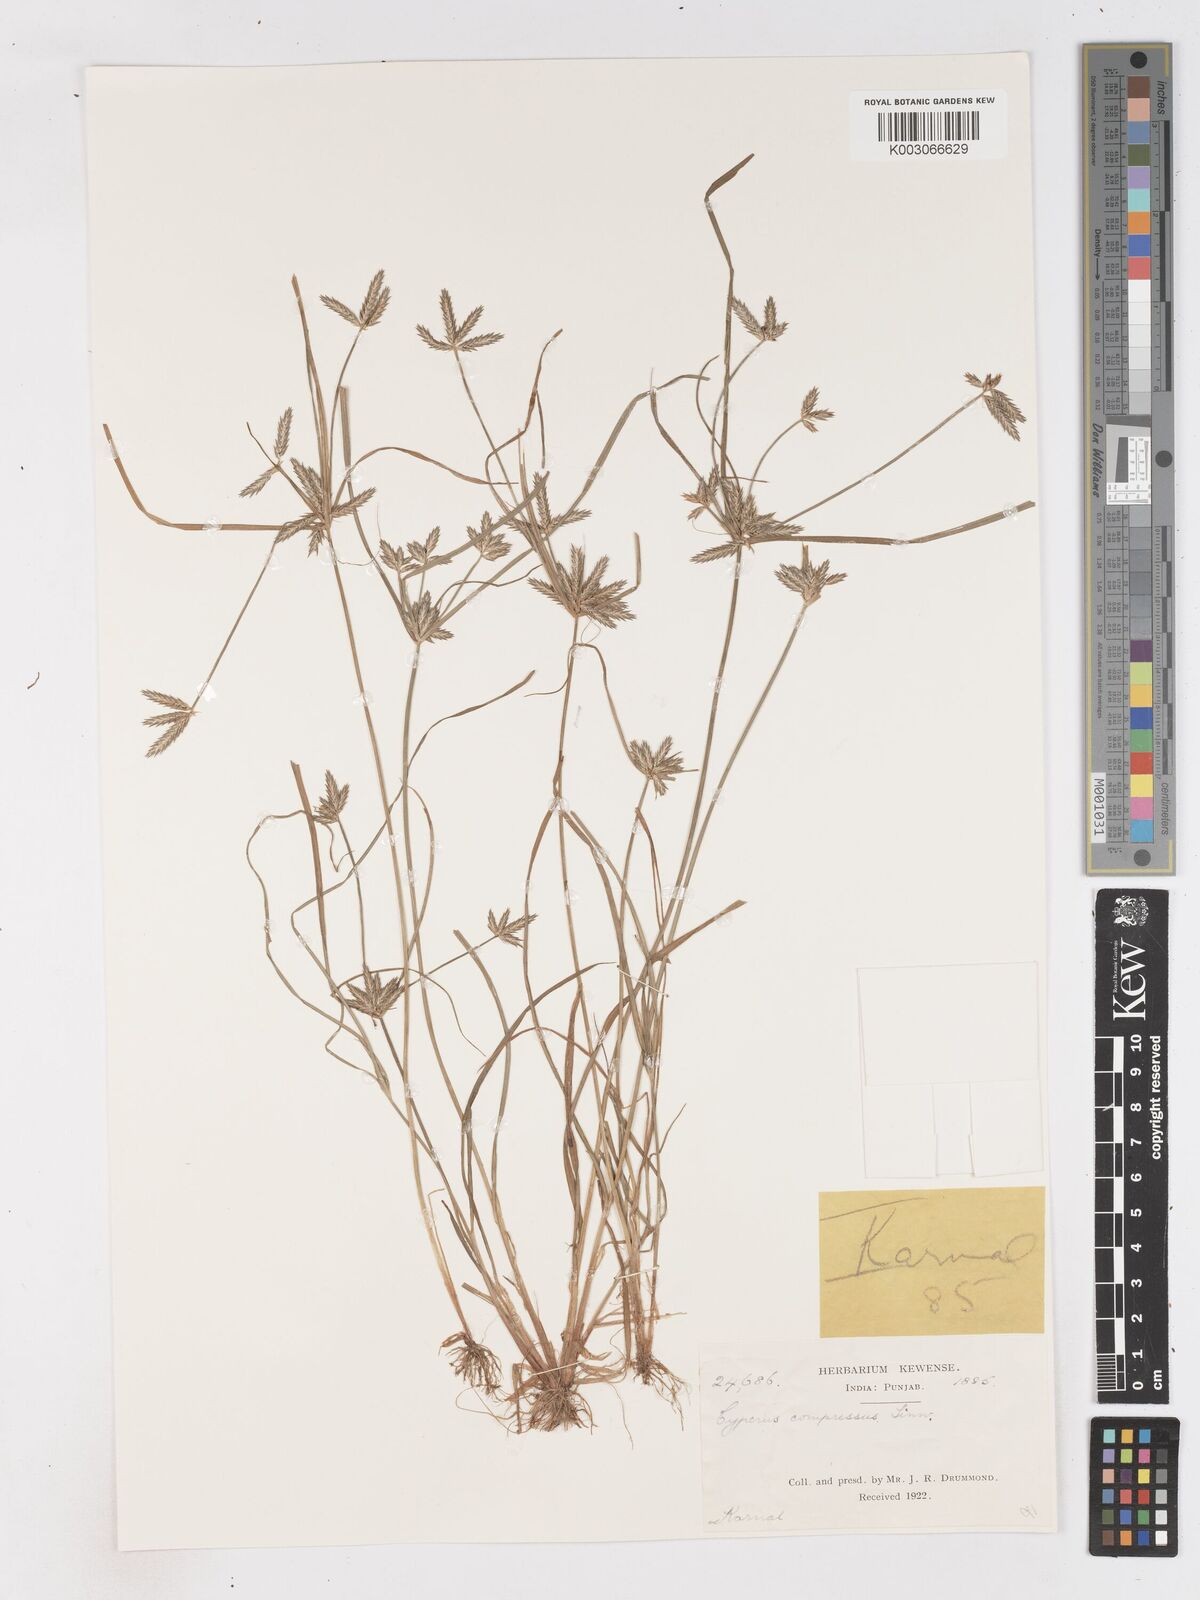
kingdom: Plantae
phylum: Tracheophyta
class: Liliopsida
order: Poales
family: Cyperaceae
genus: Cyperus
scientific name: Cyperus compressus
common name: Poorland flatsedge
